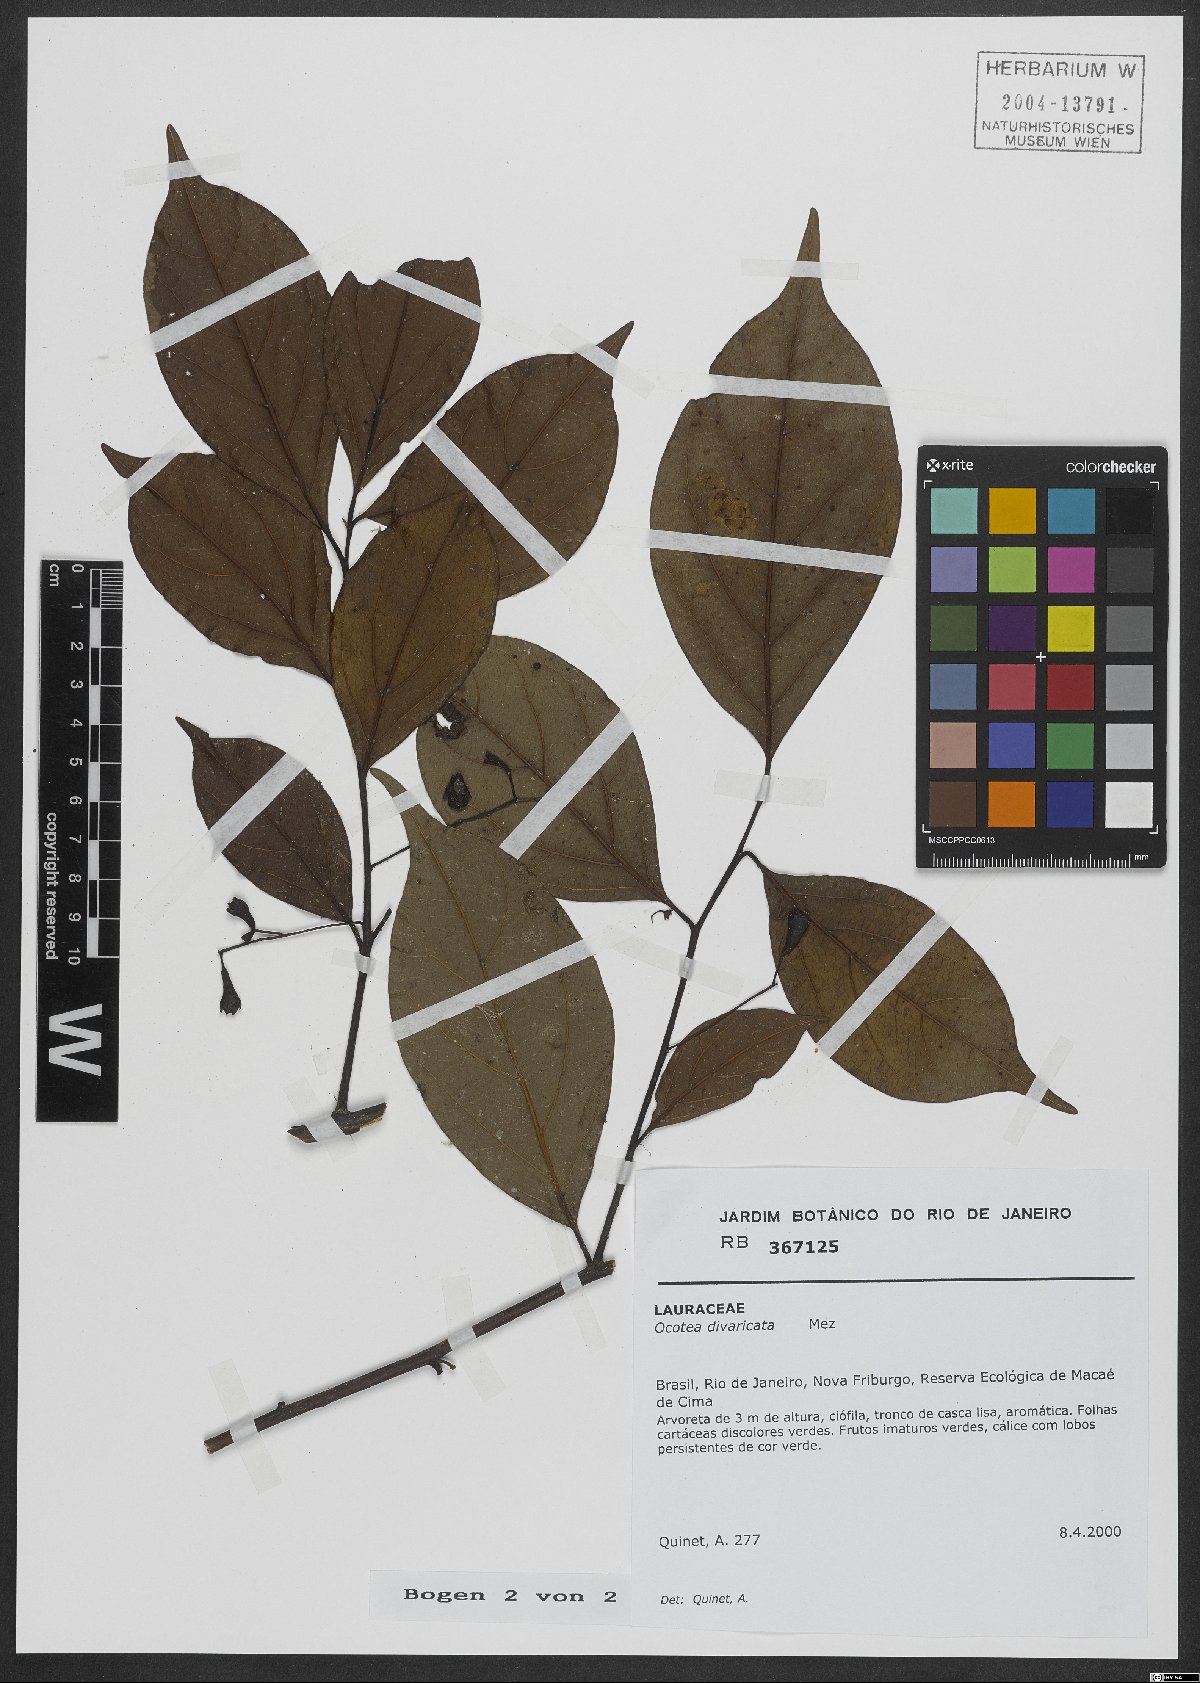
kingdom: Plantae
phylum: Tracheophyta
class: Magnoliopsida
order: Laurales
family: Lauraceae
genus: Ocotea
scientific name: Ocotea divaricata
